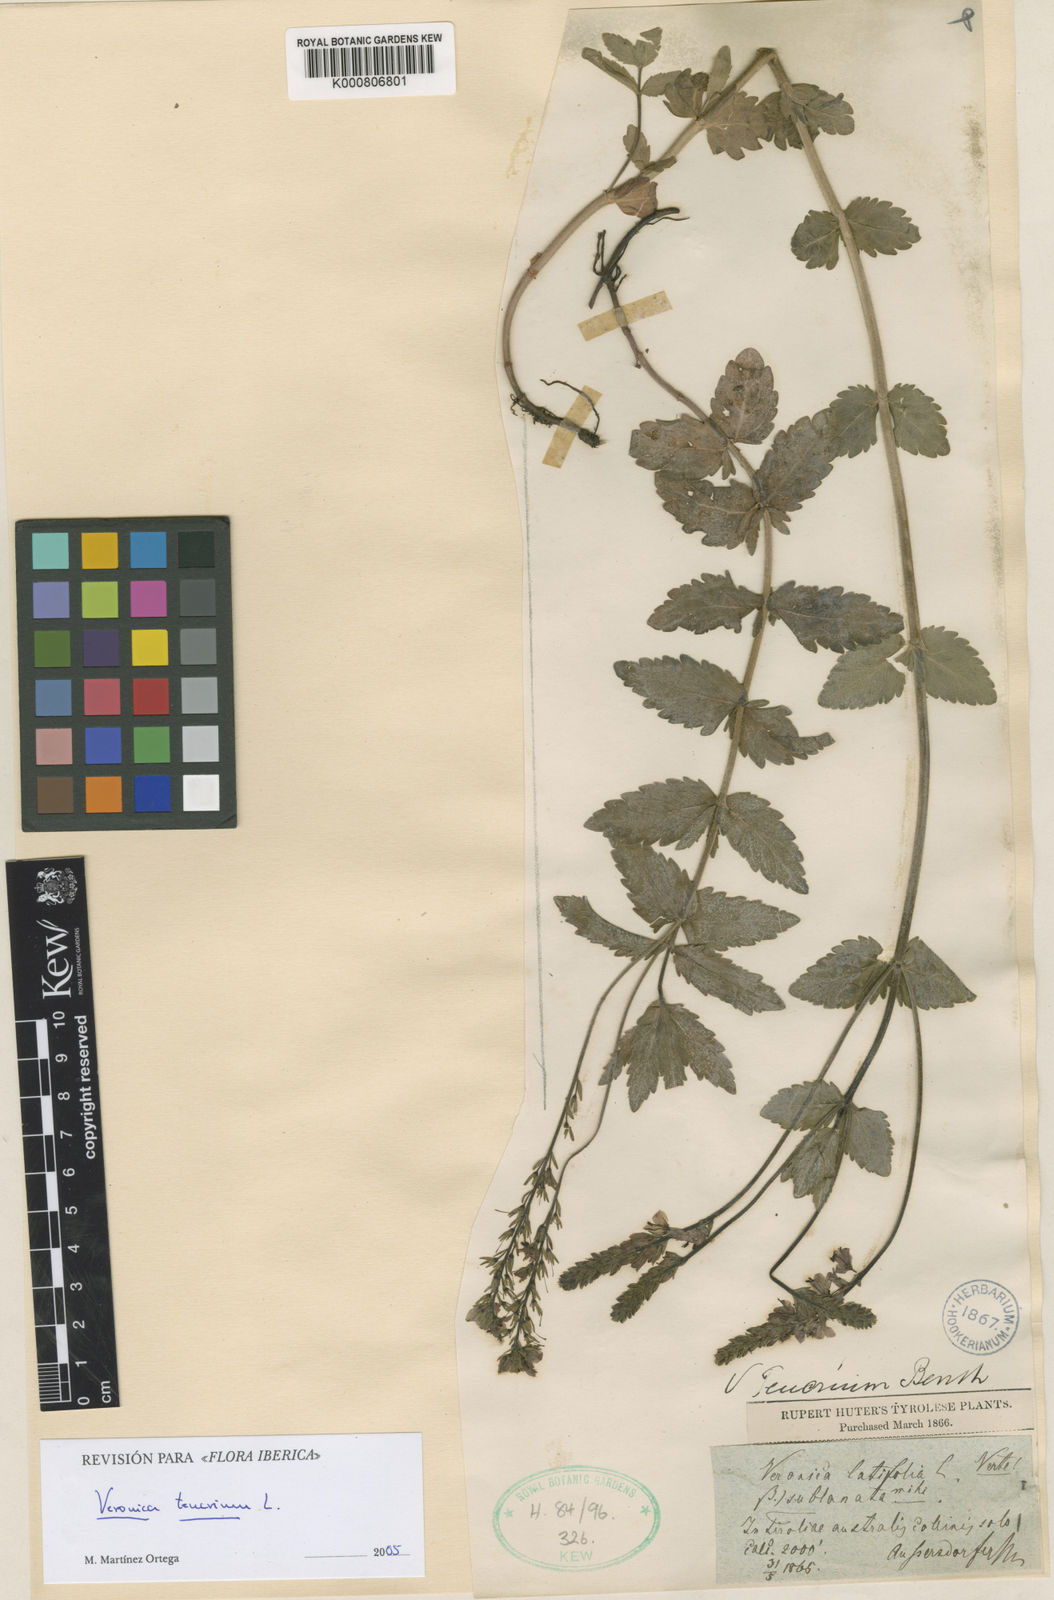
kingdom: Plantae
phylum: Tracheophyta
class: Magnoliopsida
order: Lamiales
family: Plantaginaceae
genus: Veronica
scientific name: Veronica teucrium
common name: Large speedwell
